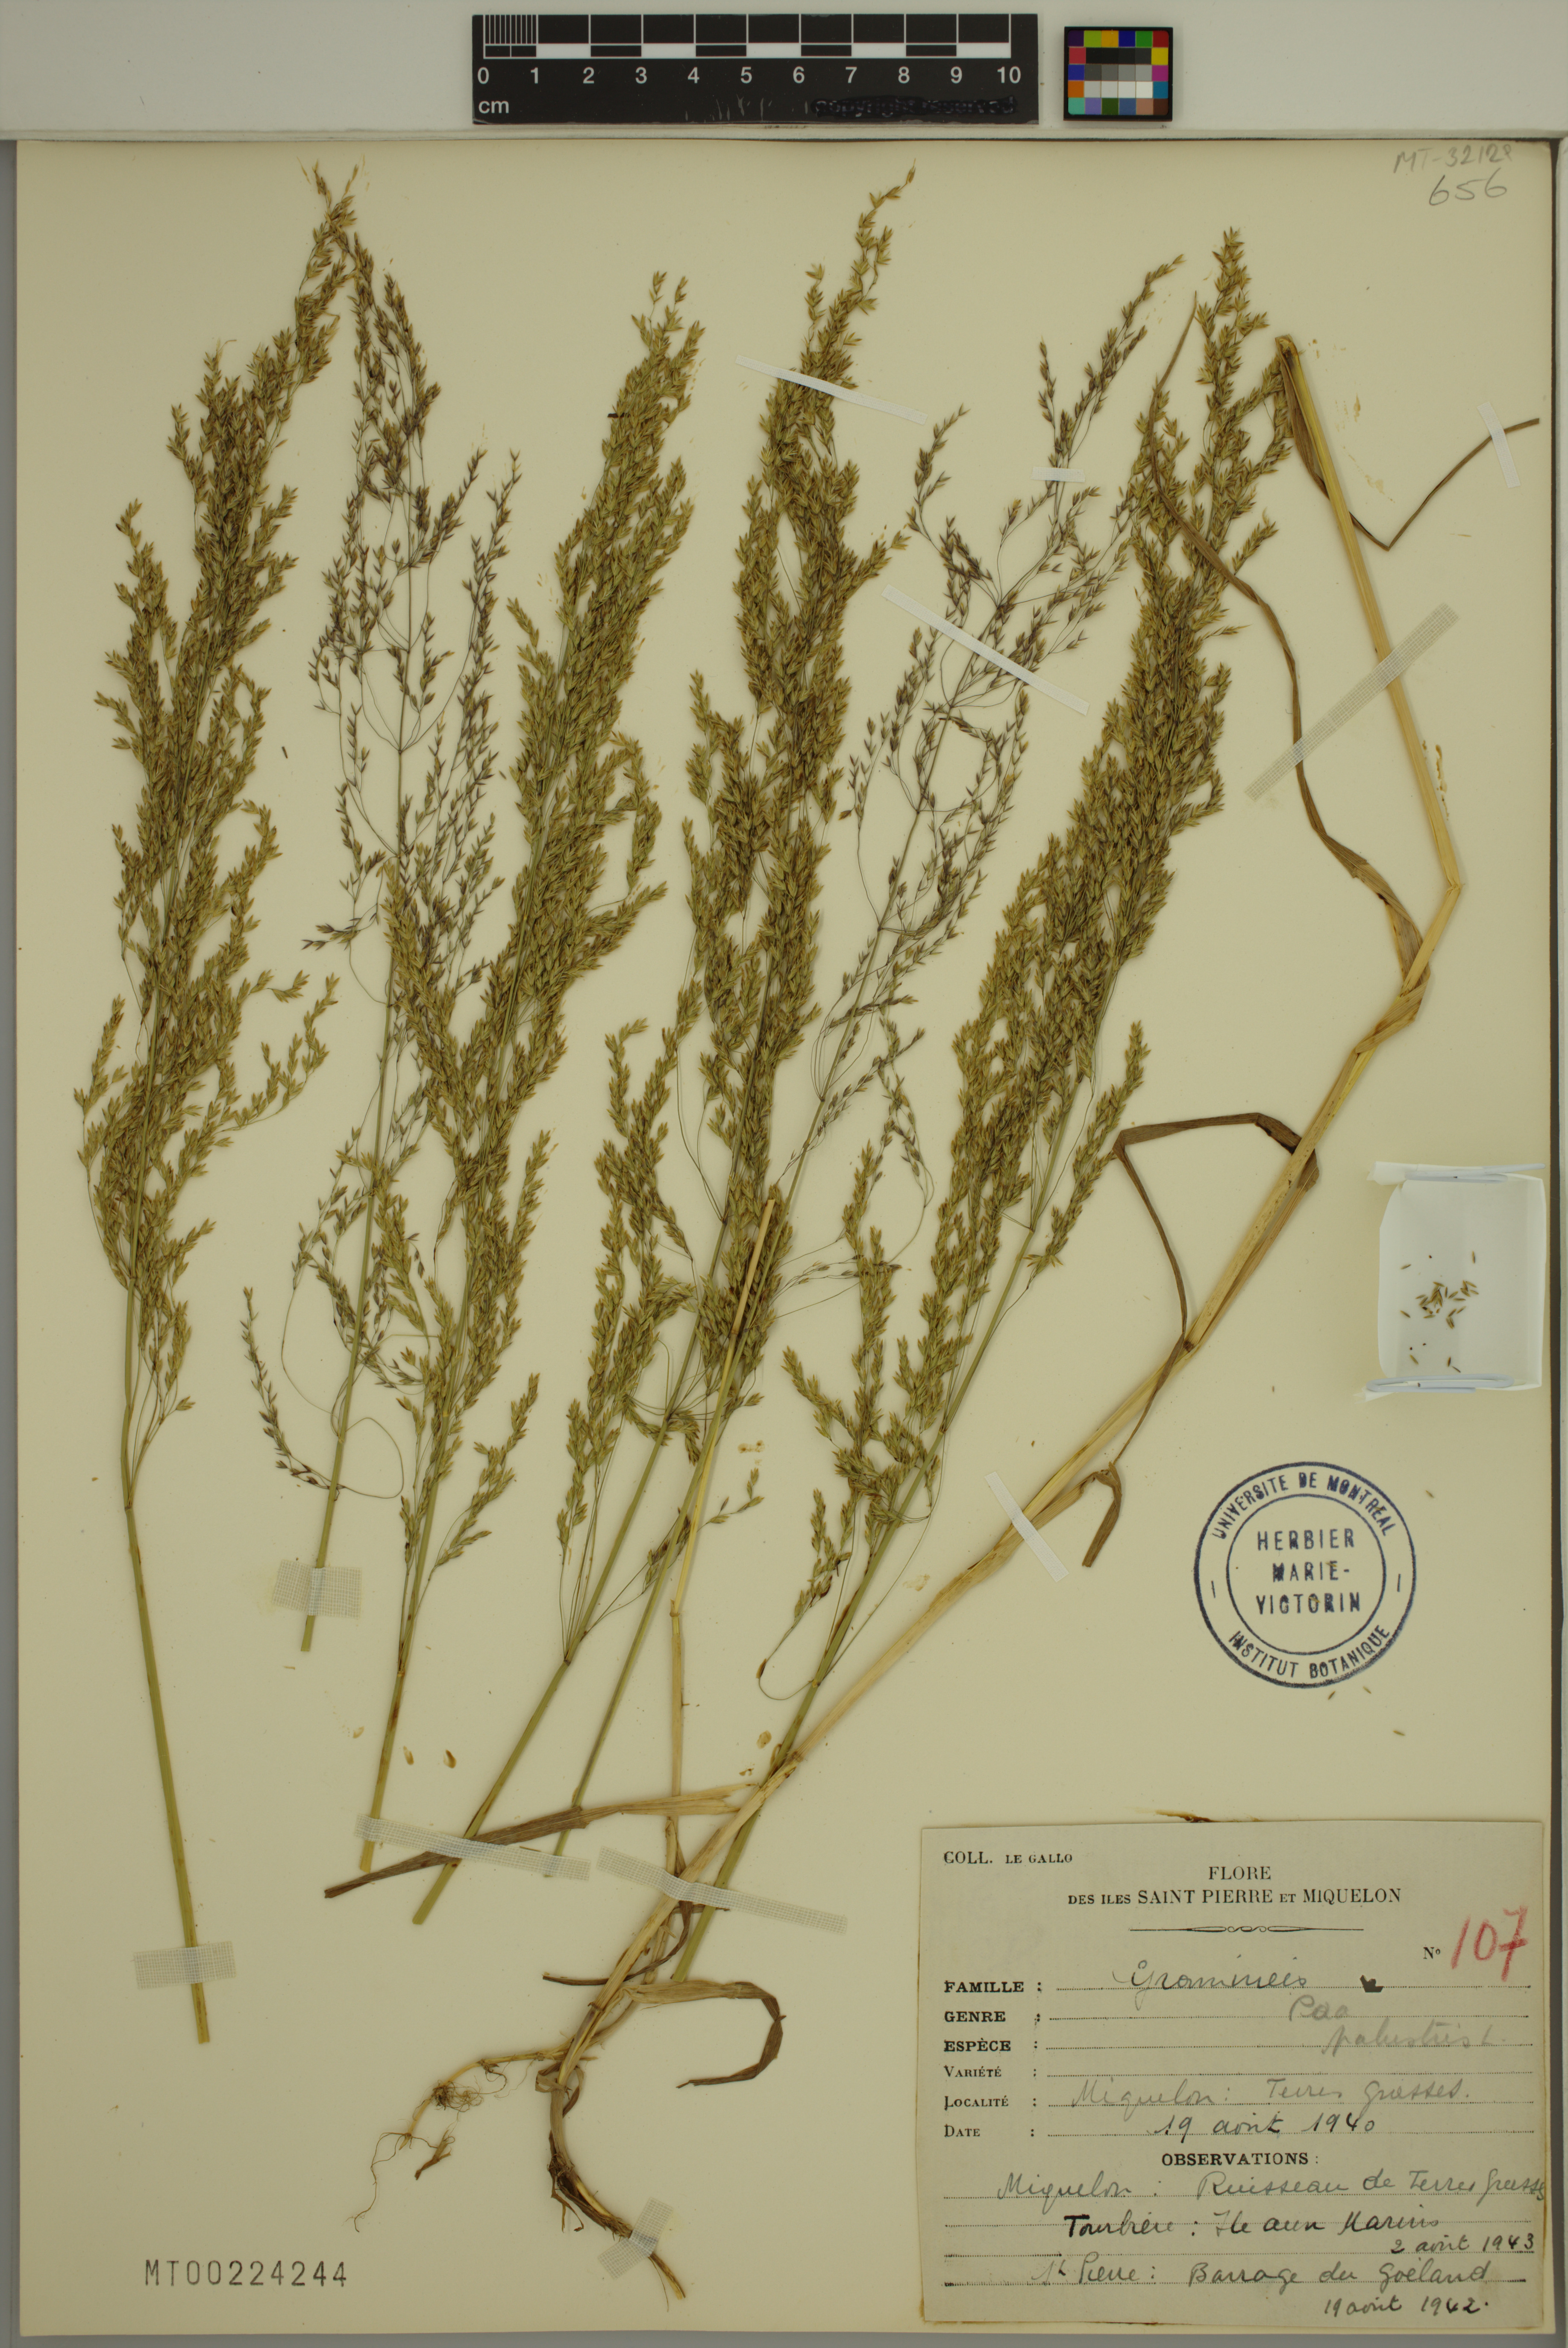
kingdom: Plantae
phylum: Tracheophyta
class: Liliopsida
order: Poales
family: Poaceae
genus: Poa
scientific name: Poa palustris
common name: Swamp meadow-grass
